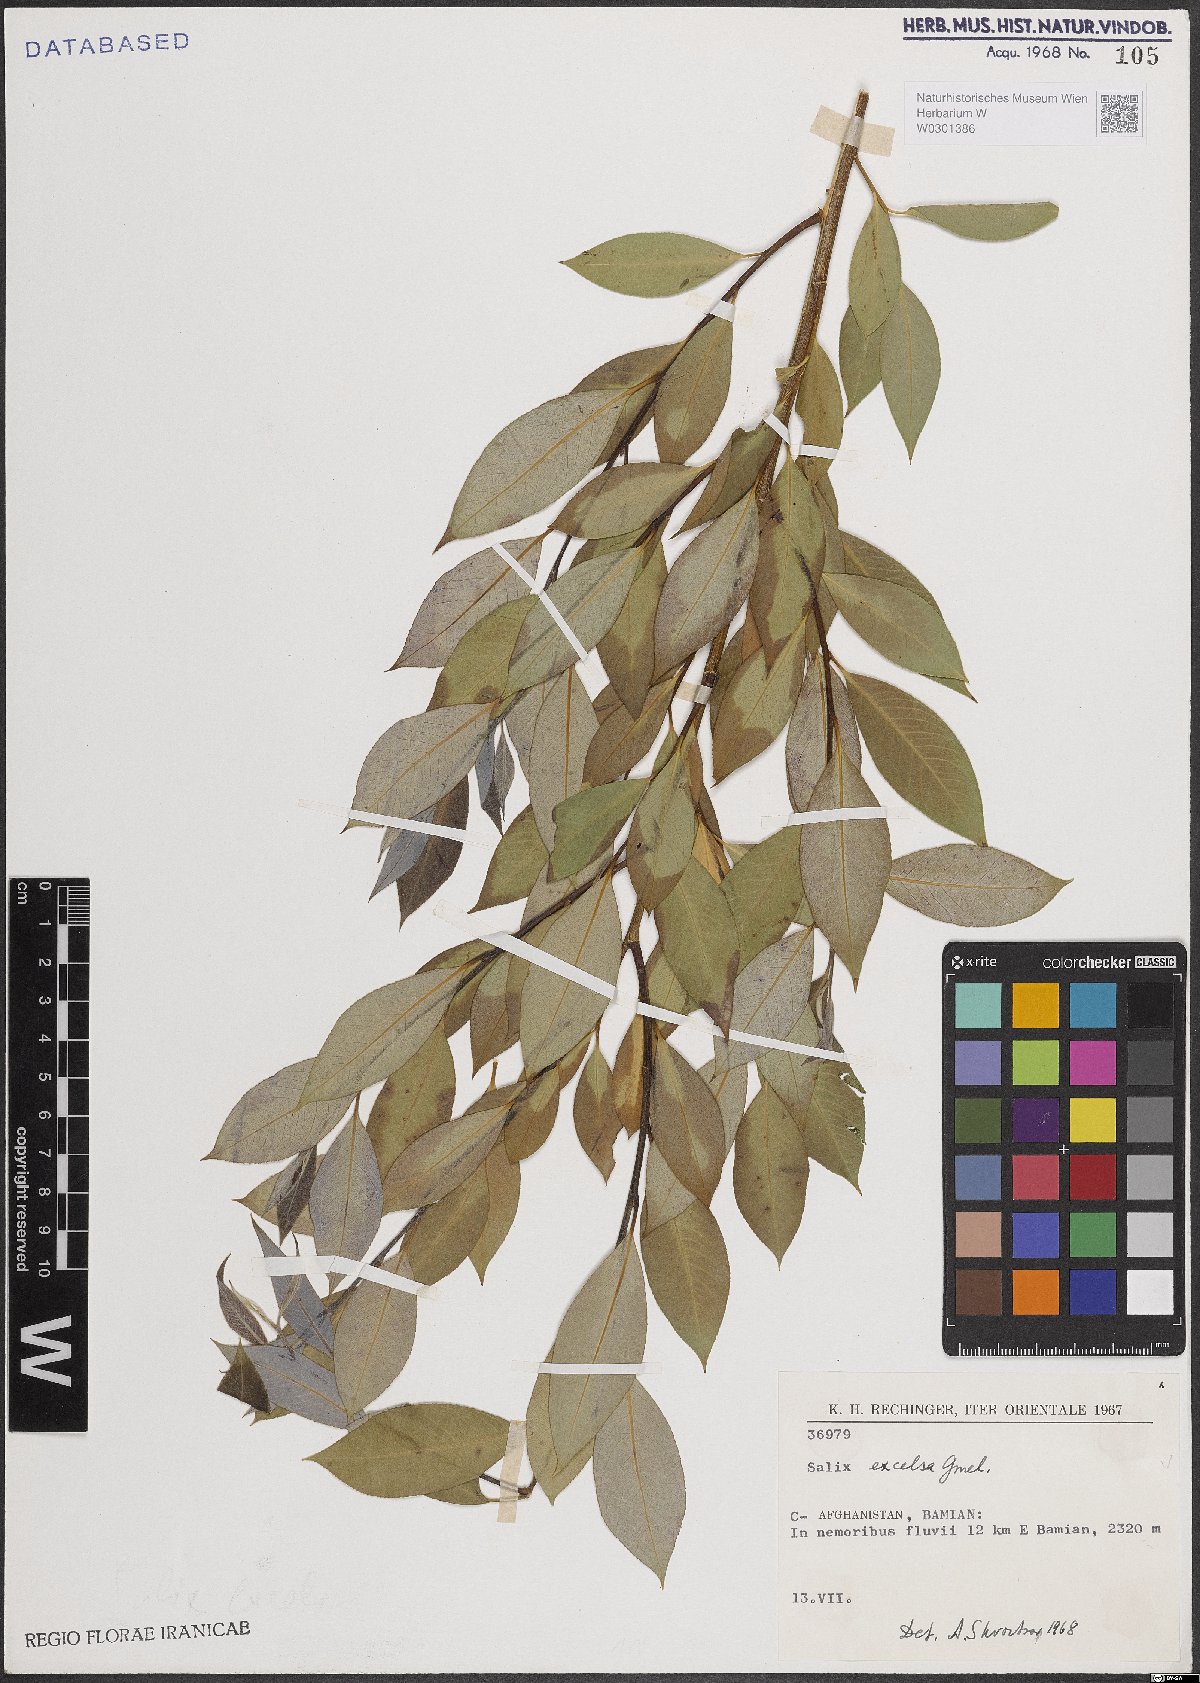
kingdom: Plantae
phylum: Tracheophyta
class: Magnoliopsida
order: Malpighiales
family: Salicaceae
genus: Salix
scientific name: Salix excelsa
